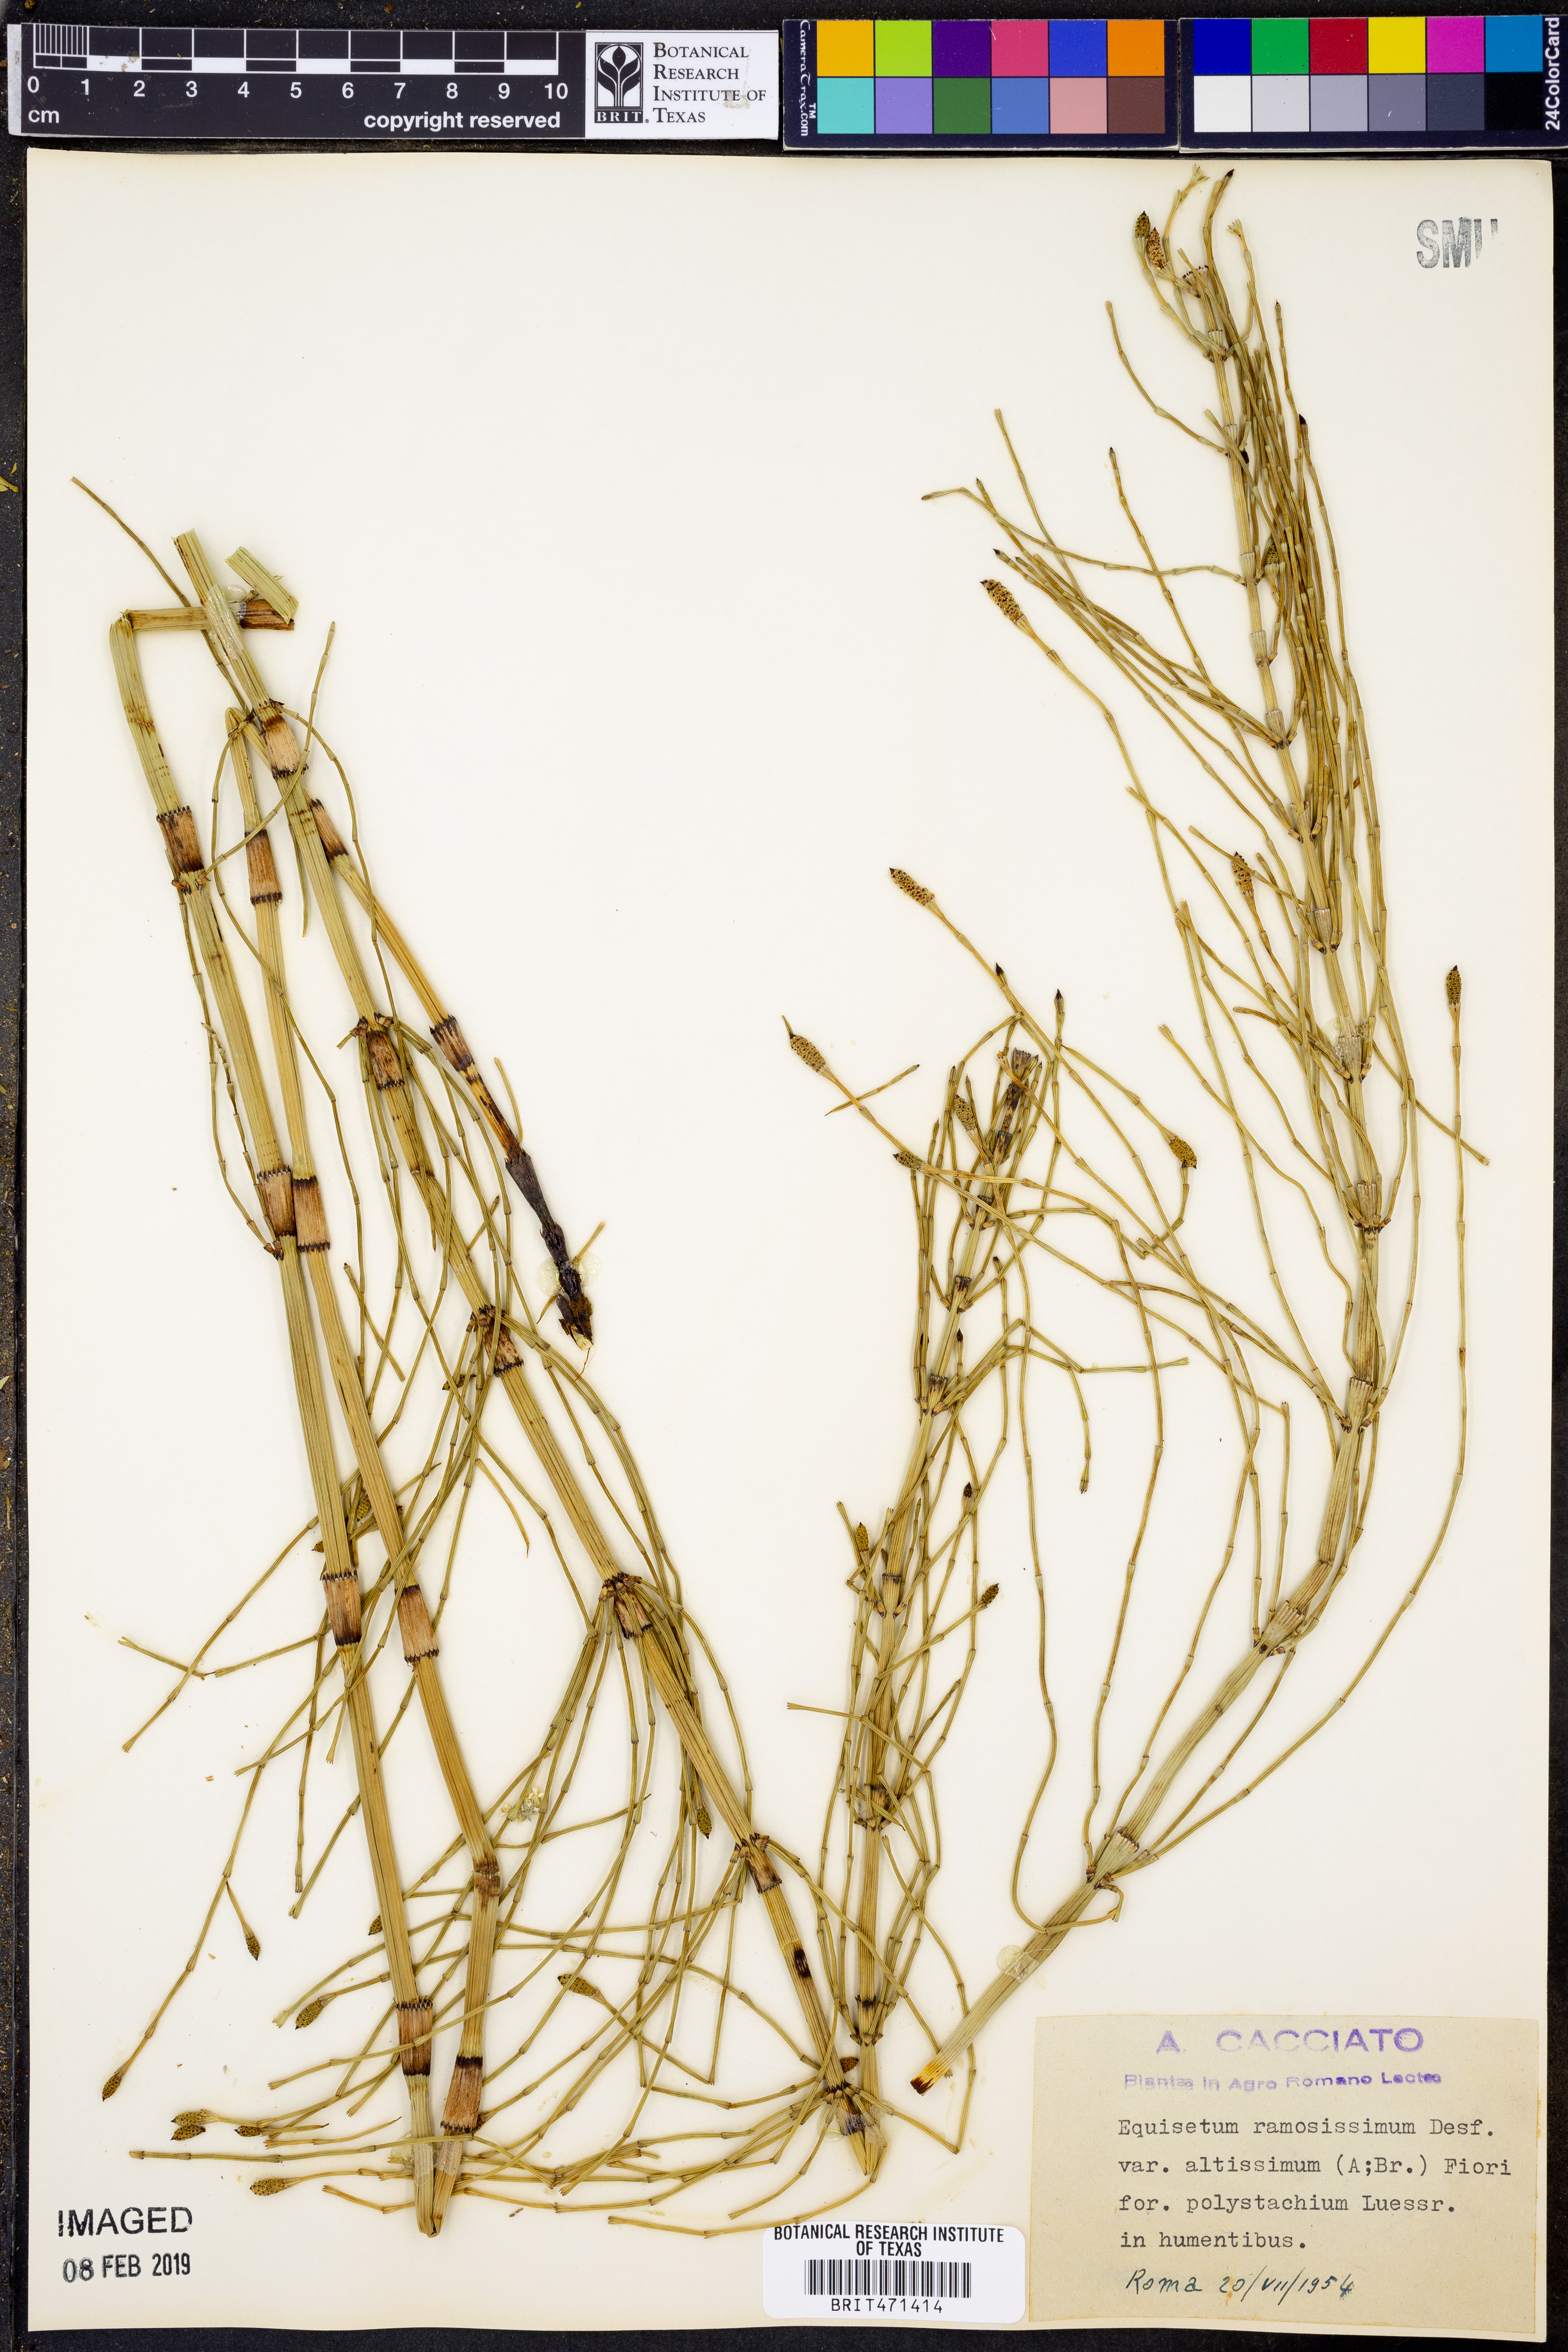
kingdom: Plantae
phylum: Tracheophyta
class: Polypodiopsida
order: Equisetales
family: Equisetaceae
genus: Equisetum
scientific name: Equisetum ramosissimum
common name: Branched horsetail
